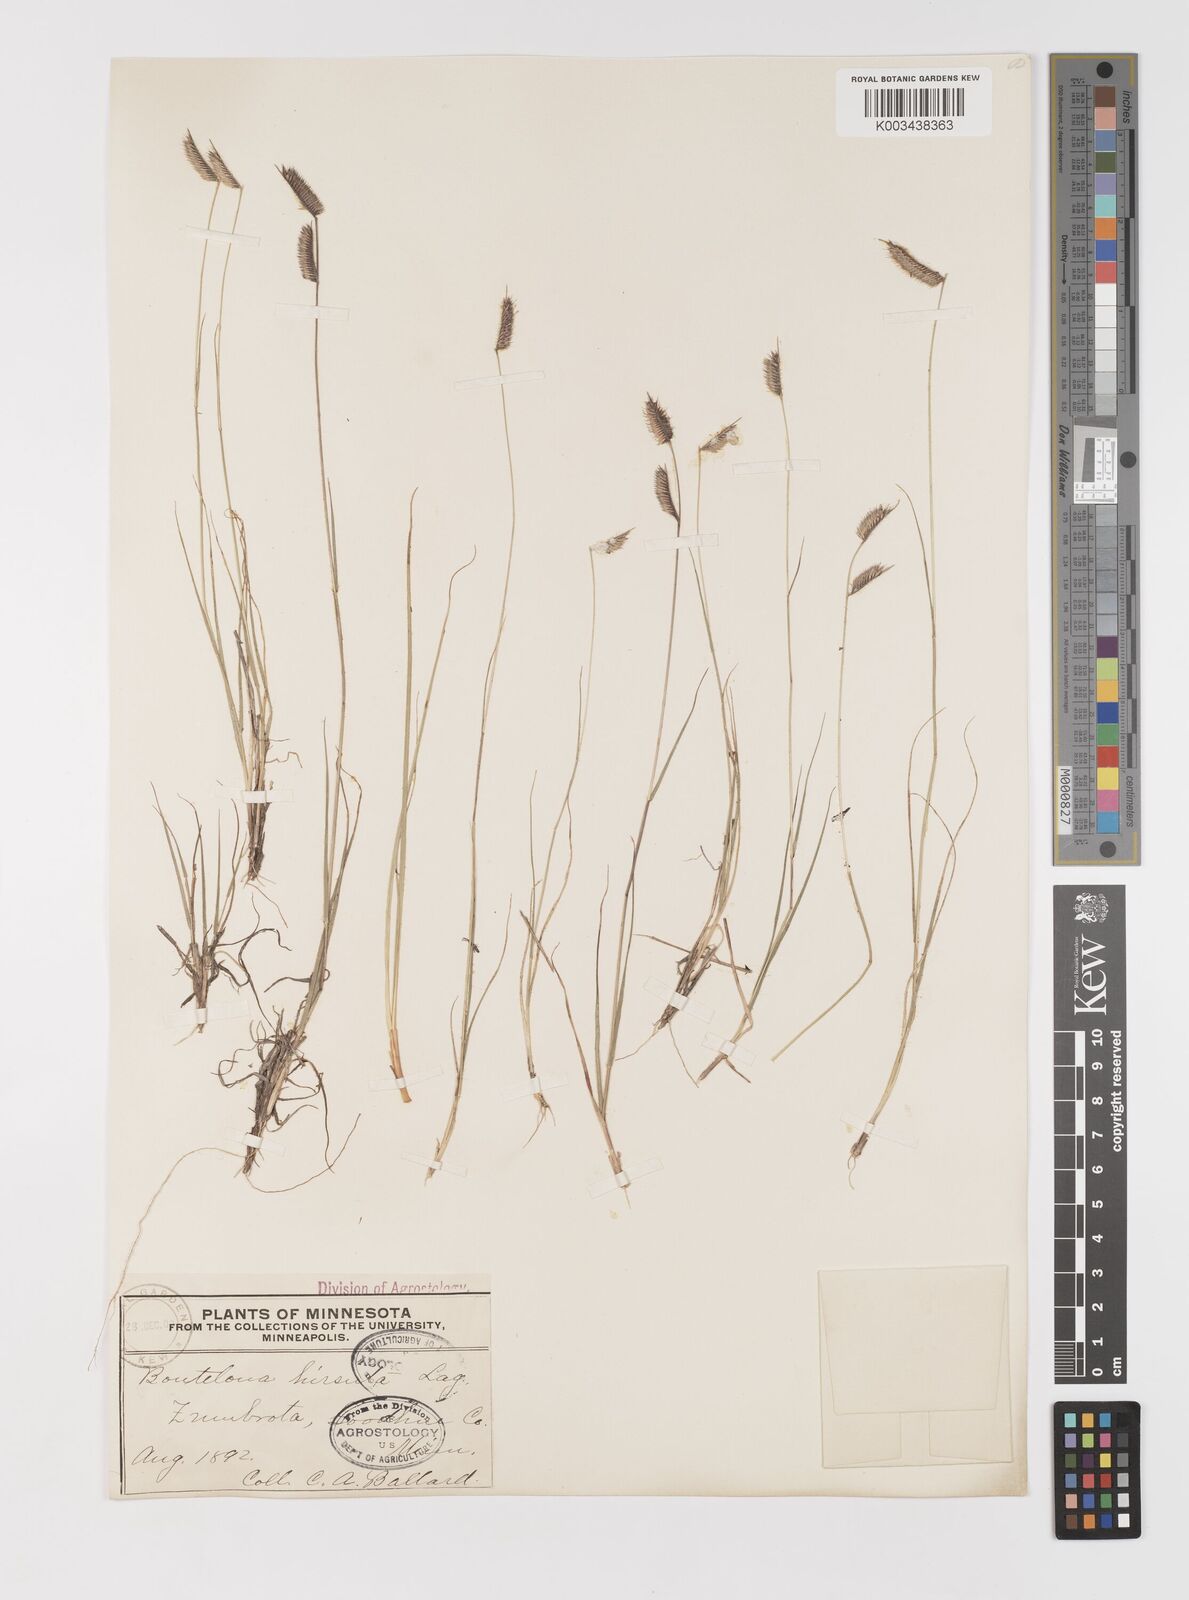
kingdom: Plantae
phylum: Tracheophyta
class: Liliopsida
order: Poales
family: Poaceae
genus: Bouteloua
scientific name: Bouteloua hirsuta
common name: Hairy grama
